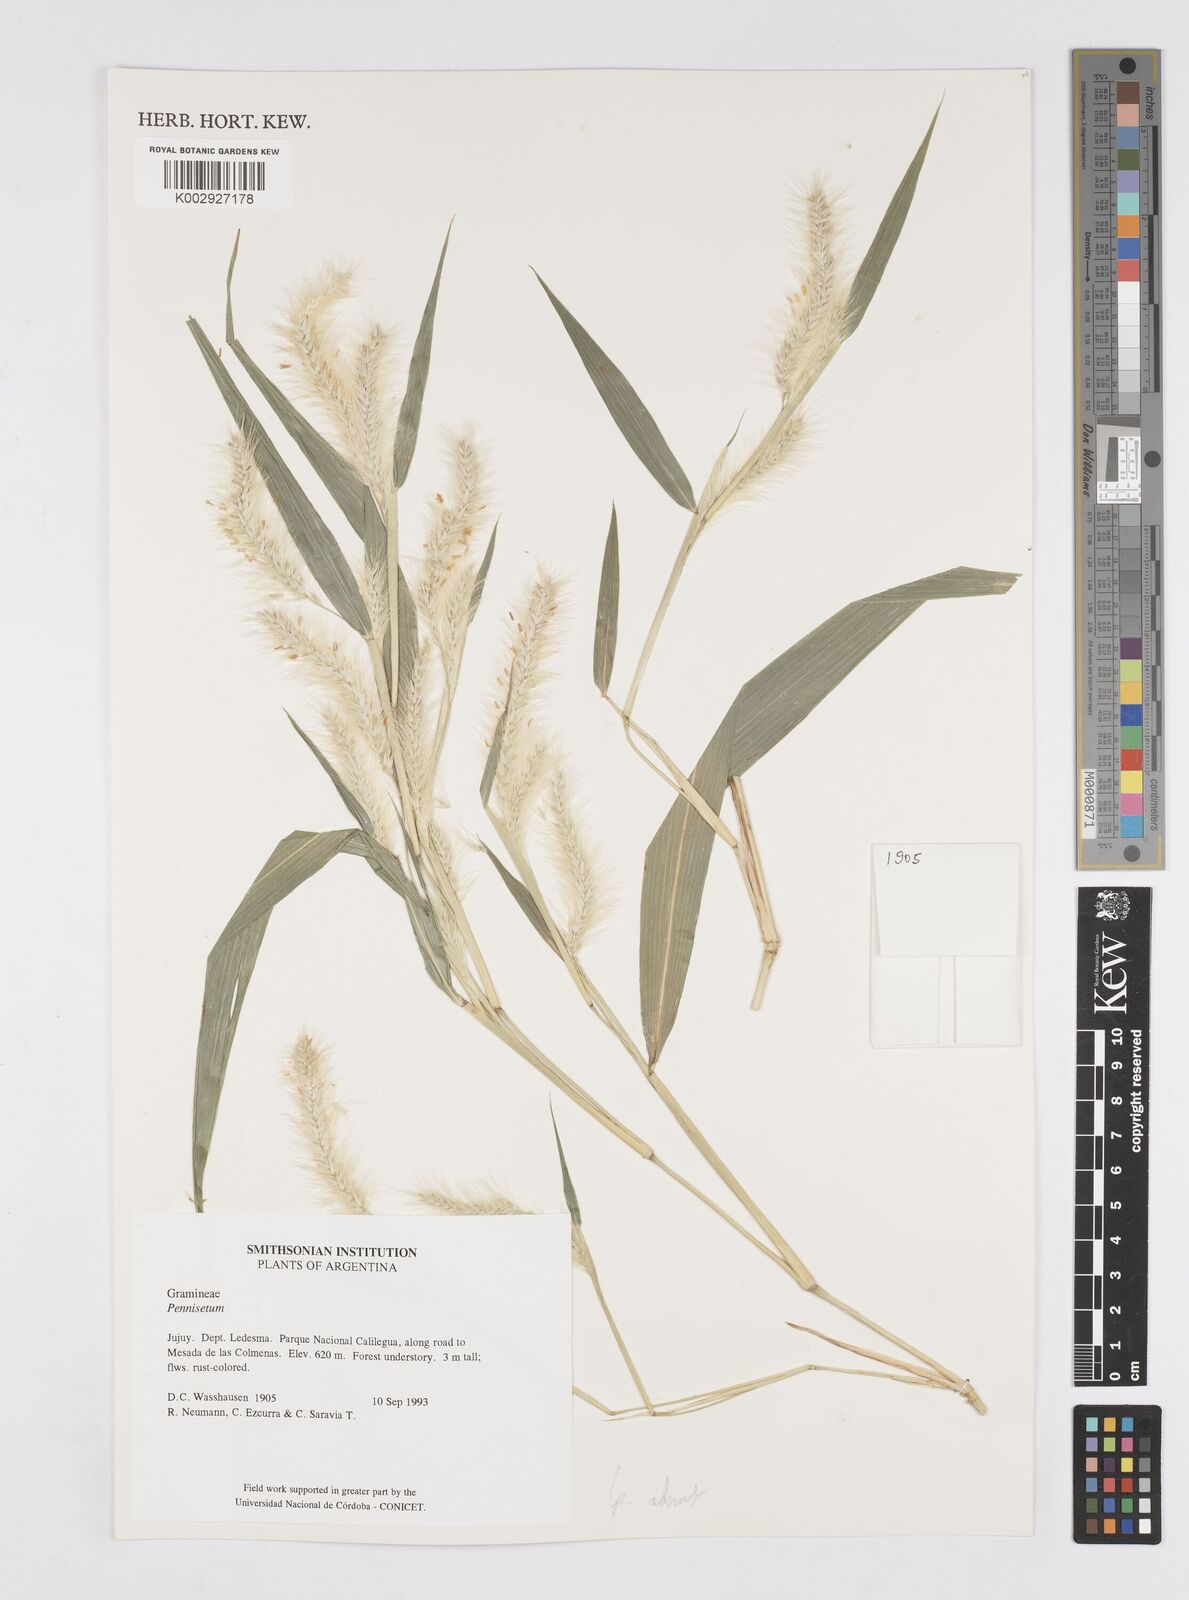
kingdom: Plantae
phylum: Tracheophyta
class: Liliopsida
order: Poales
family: Poaceae
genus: Cenchrus
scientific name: Cenchrus tristachyus
